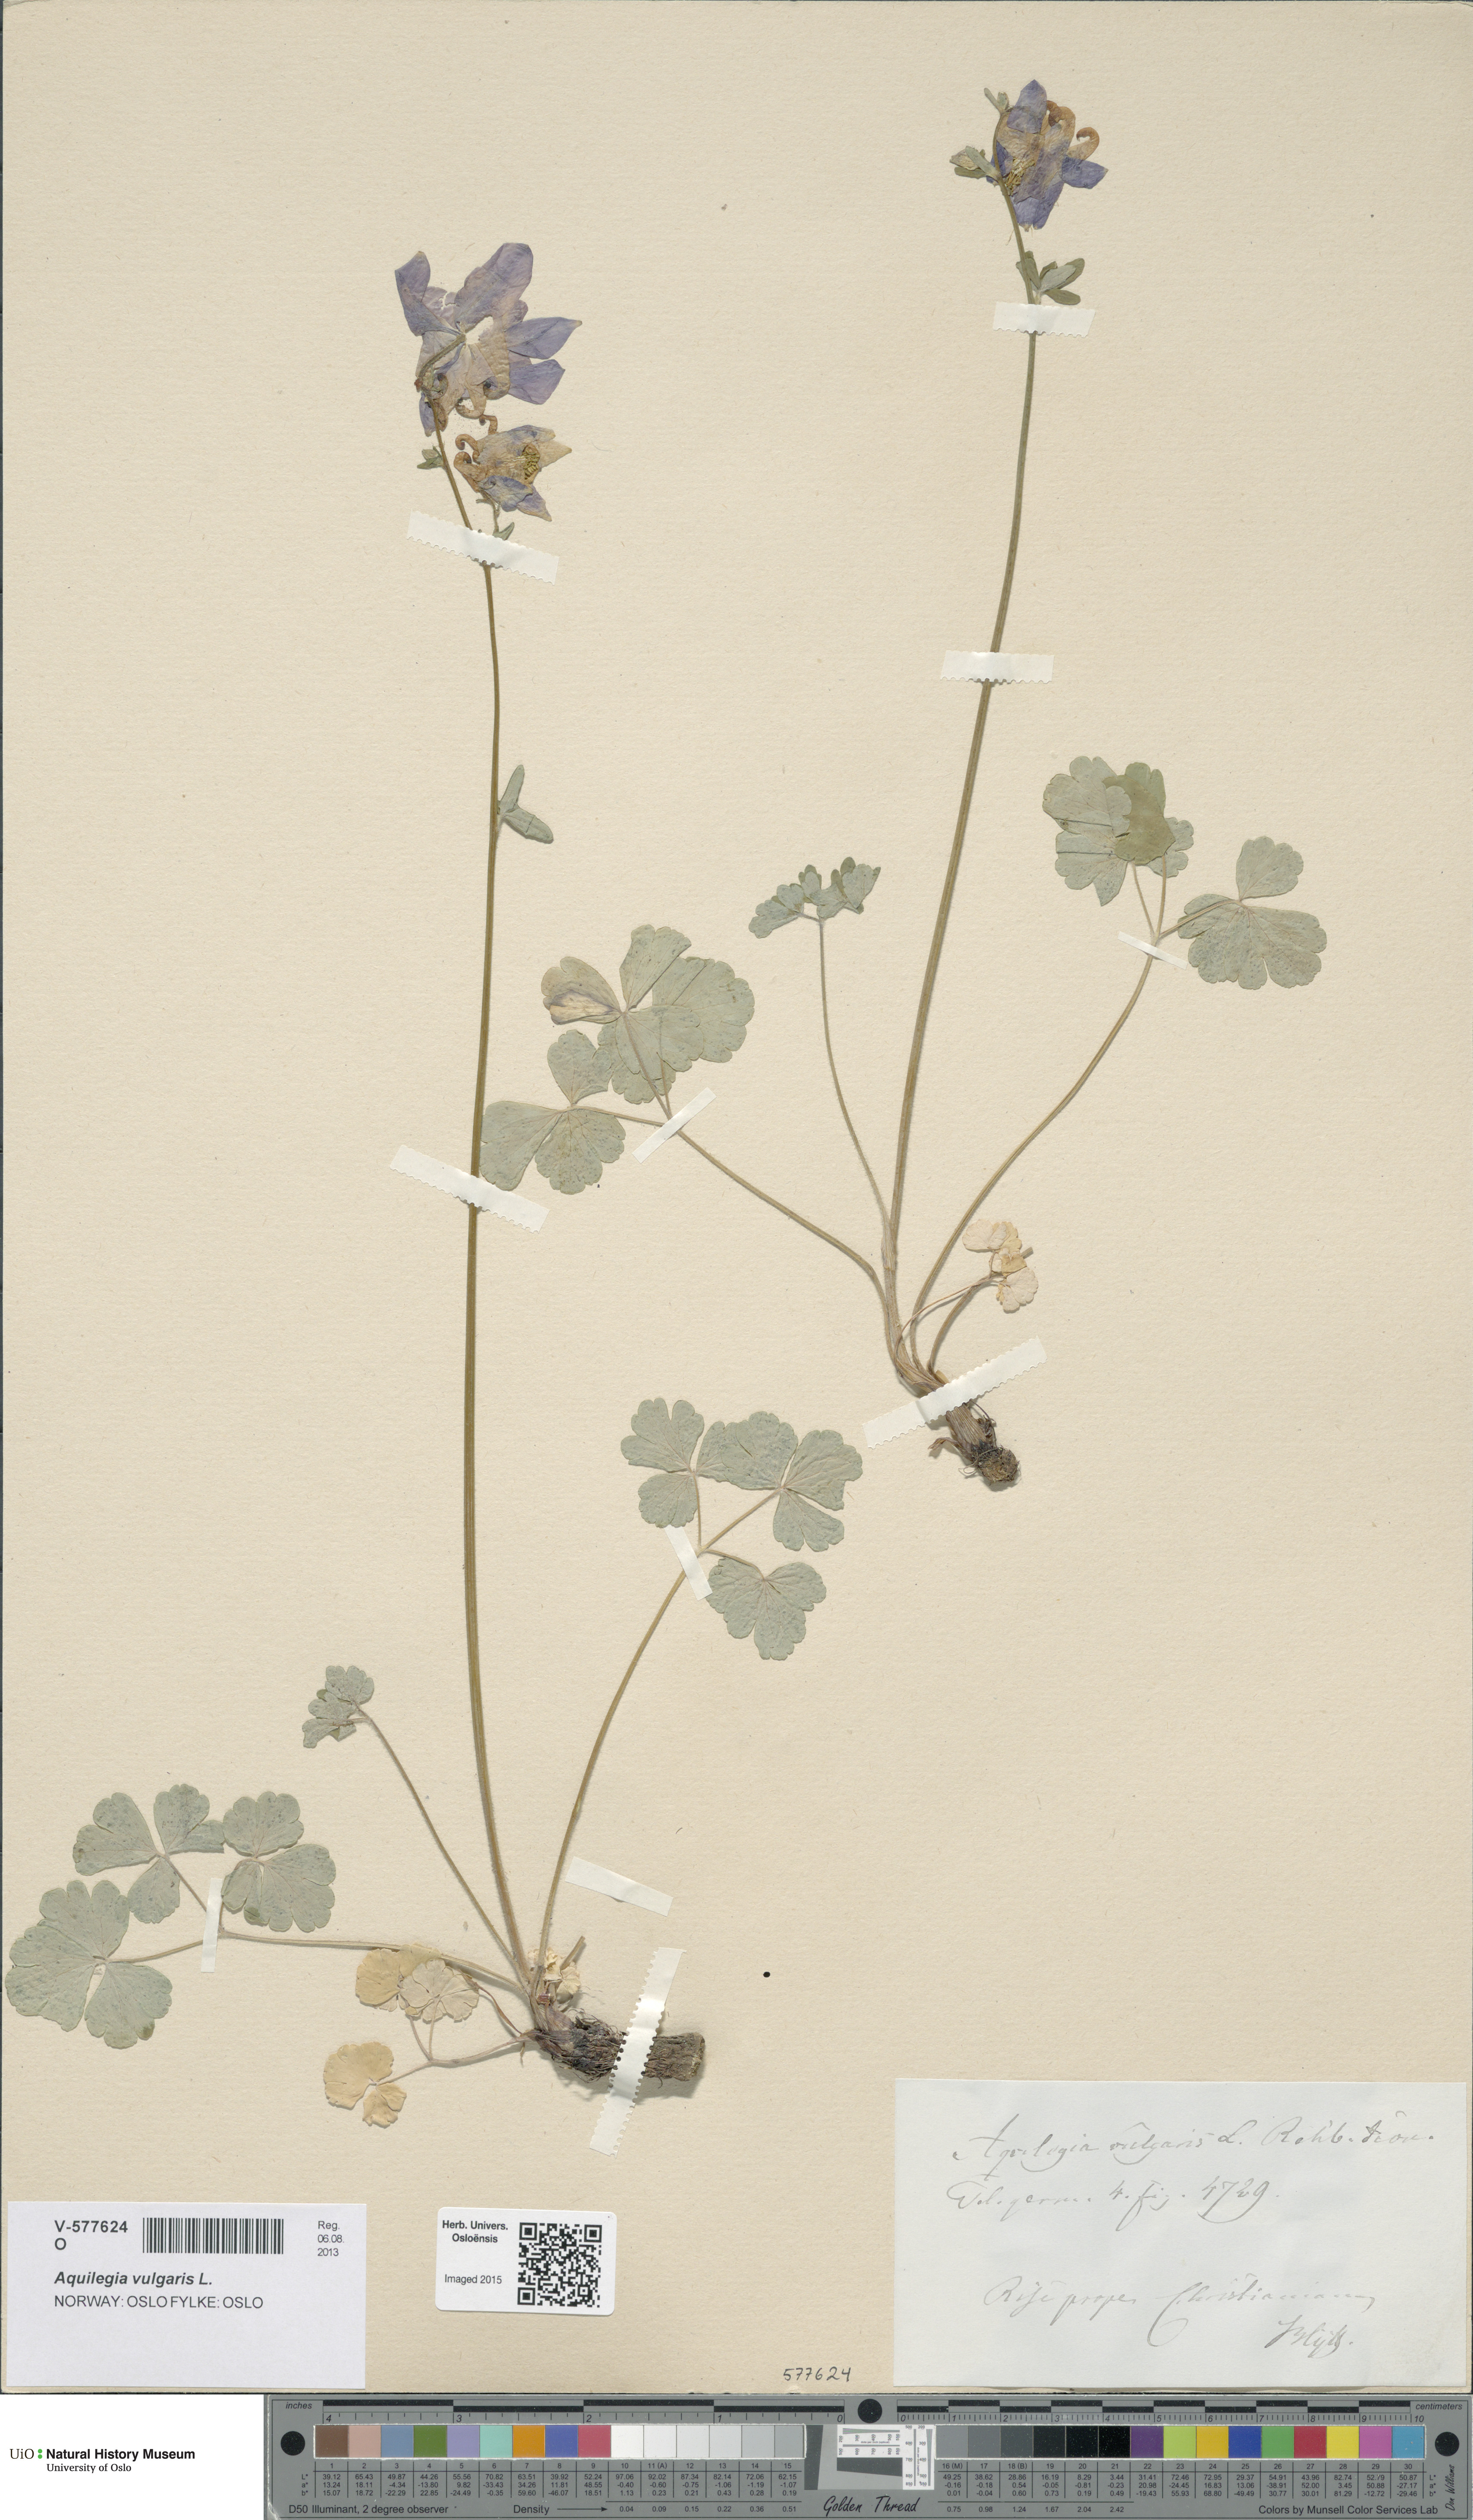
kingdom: Plantae
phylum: Tracheophyta
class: Magnoliopsida
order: Ranunculales
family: Ranunculaceae
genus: Aquilegia
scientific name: Aquilegia vulgaris
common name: Columbine
